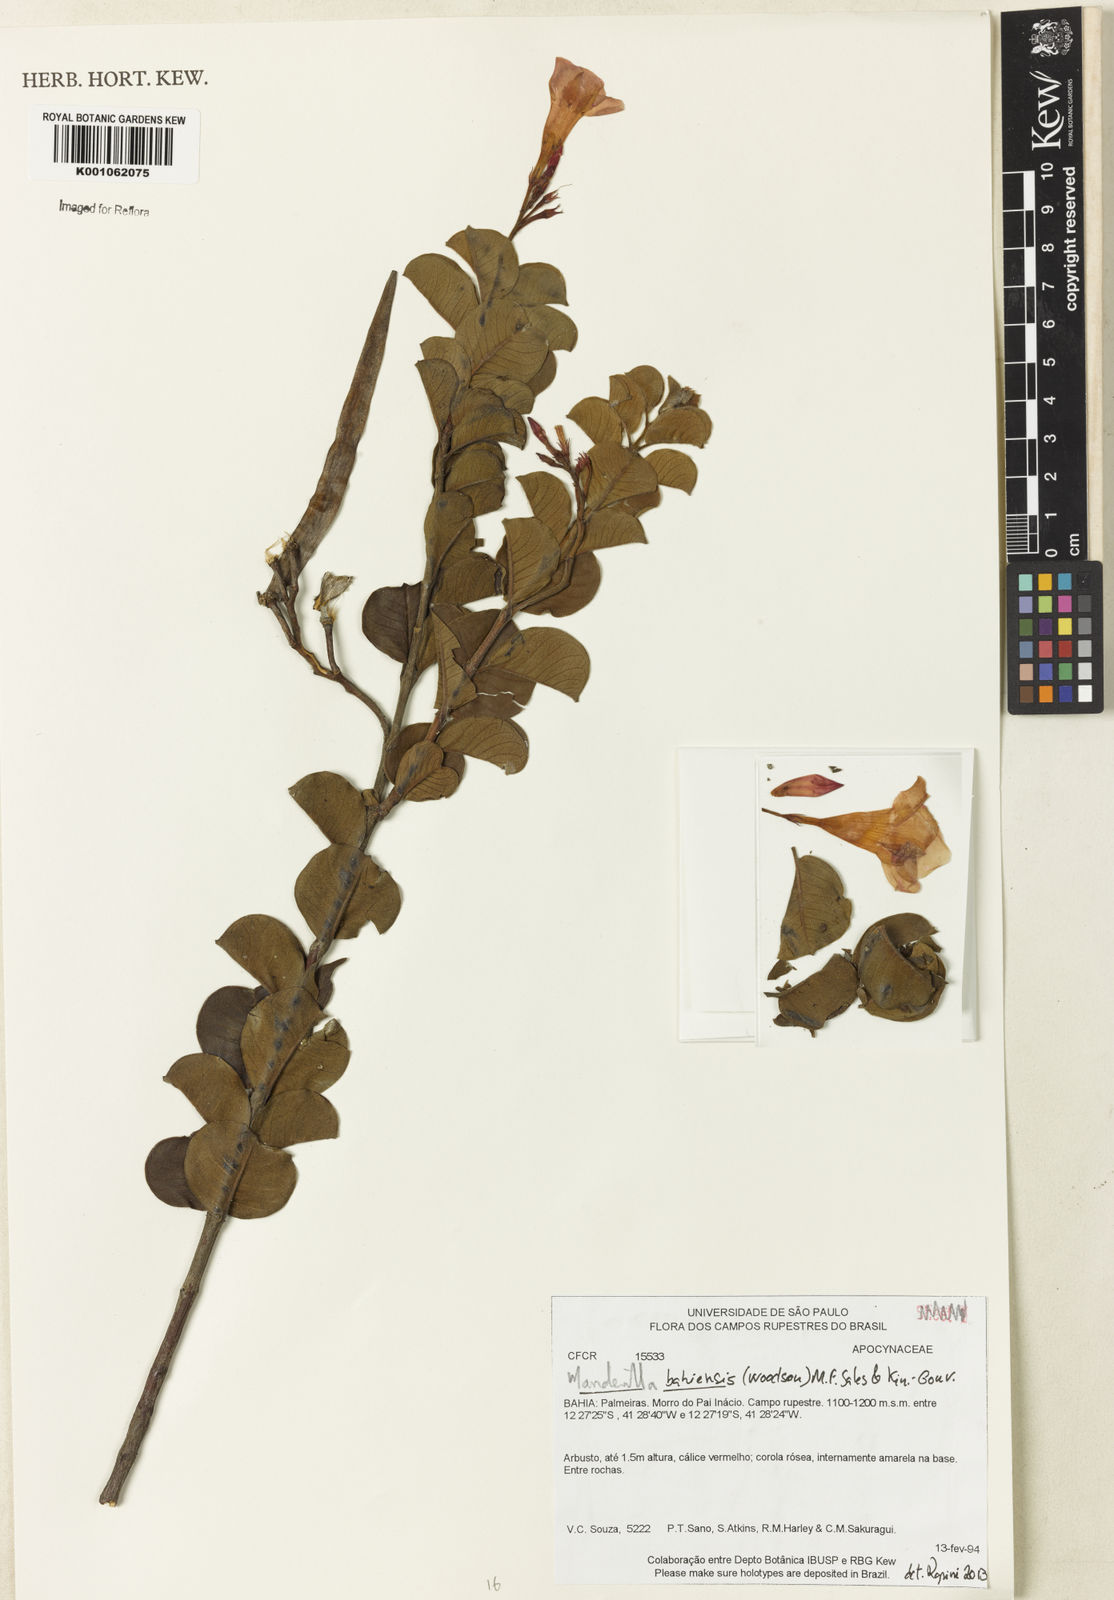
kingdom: Plantae
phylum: Tracheophyta
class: Magnoliopsida
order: Gentianales
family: Apocynaceae
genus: Mandevilla
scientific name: Mandevilla
